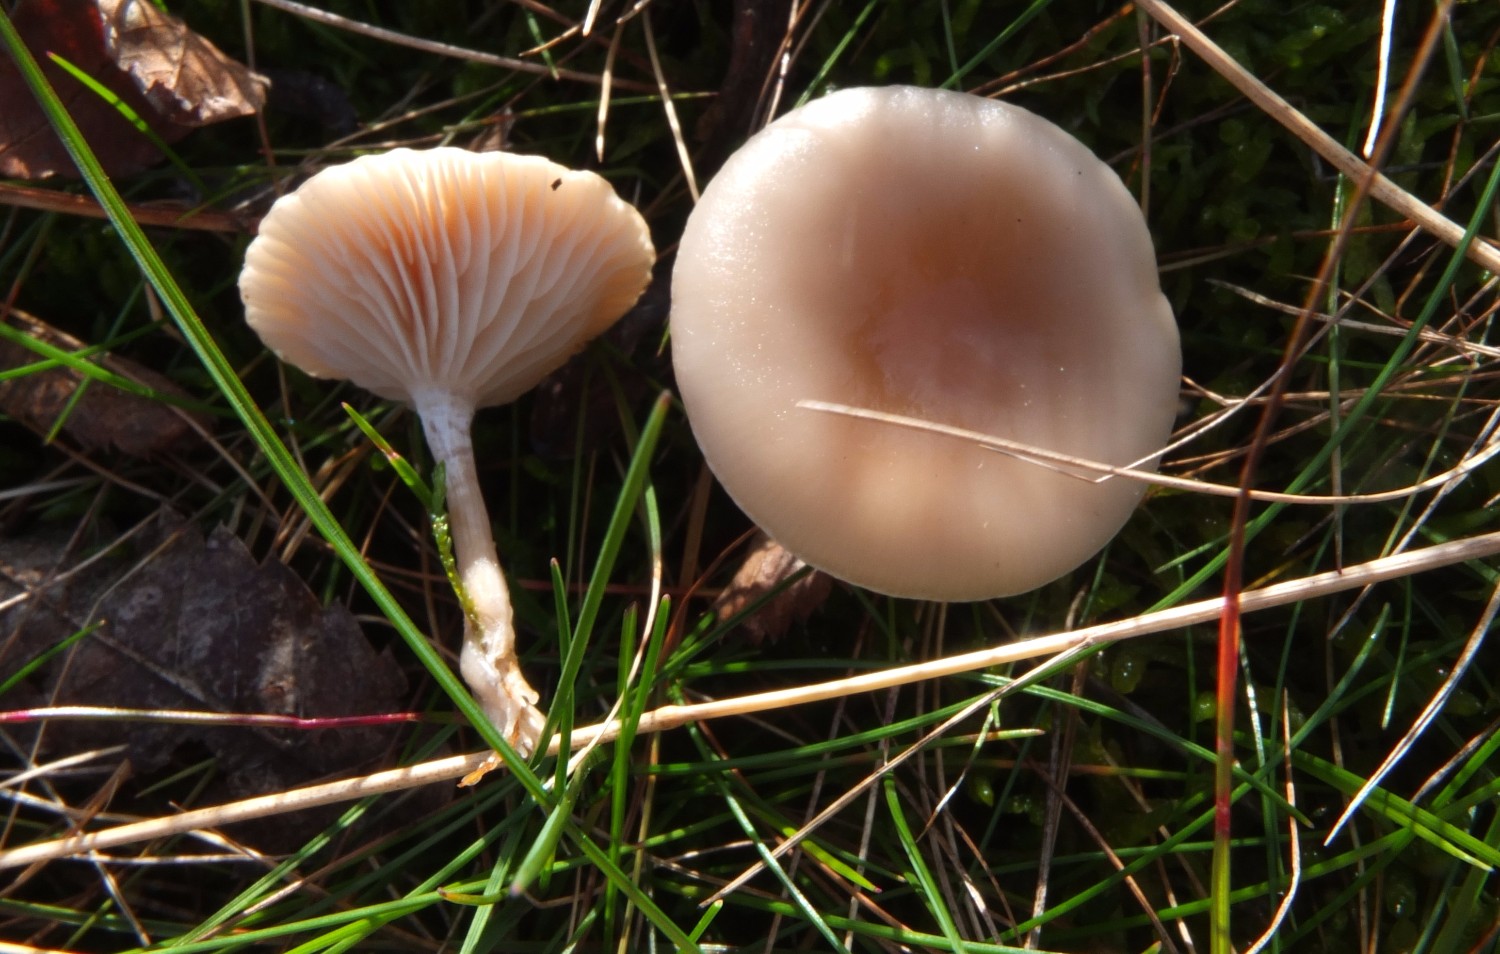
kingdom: Fungi
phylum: Basidiomycota
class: Agaricomycetes
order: Agaricales
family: Tricholomataceae
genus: Clitocybe
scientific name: Clitocybe
